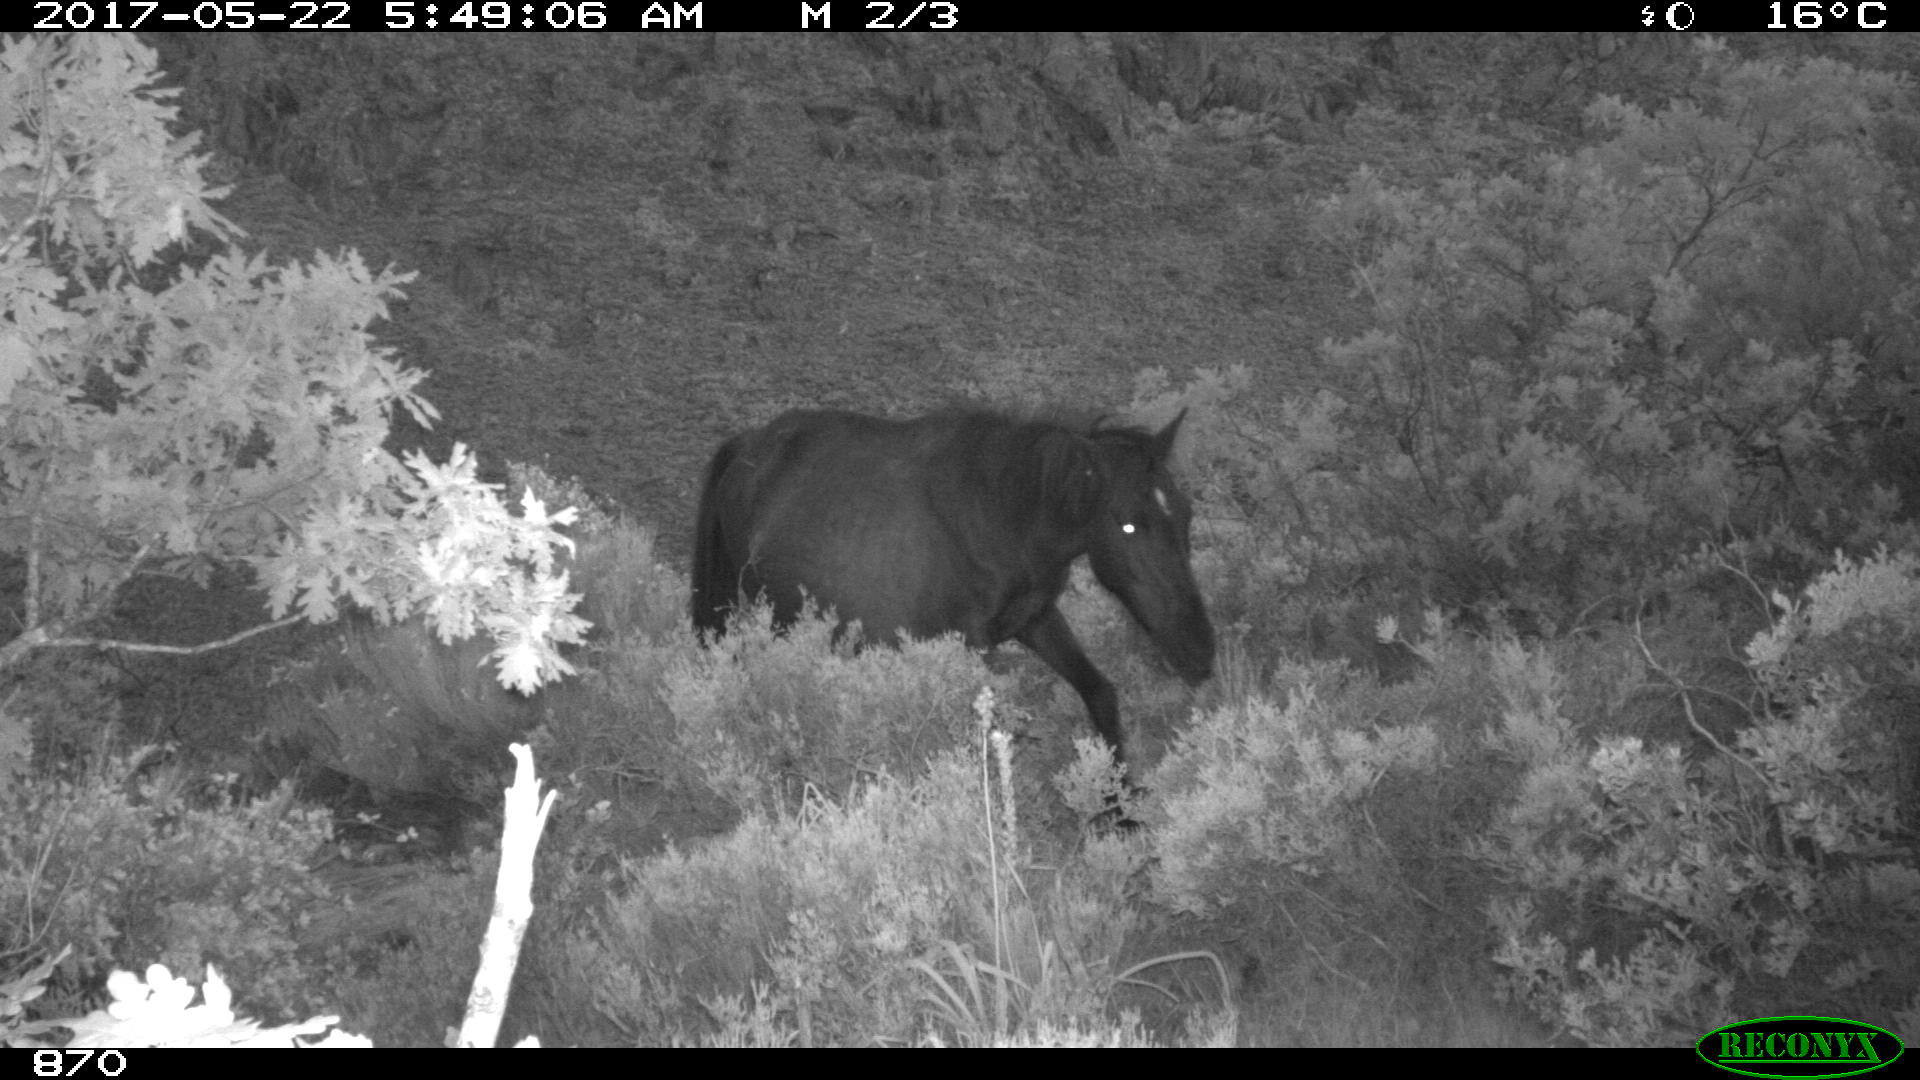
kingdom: Animalia
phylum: Chordata
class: Mammalia
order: Perissodactyla
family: Equidae
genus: Equus
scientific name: Equus caballus
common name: Horse
